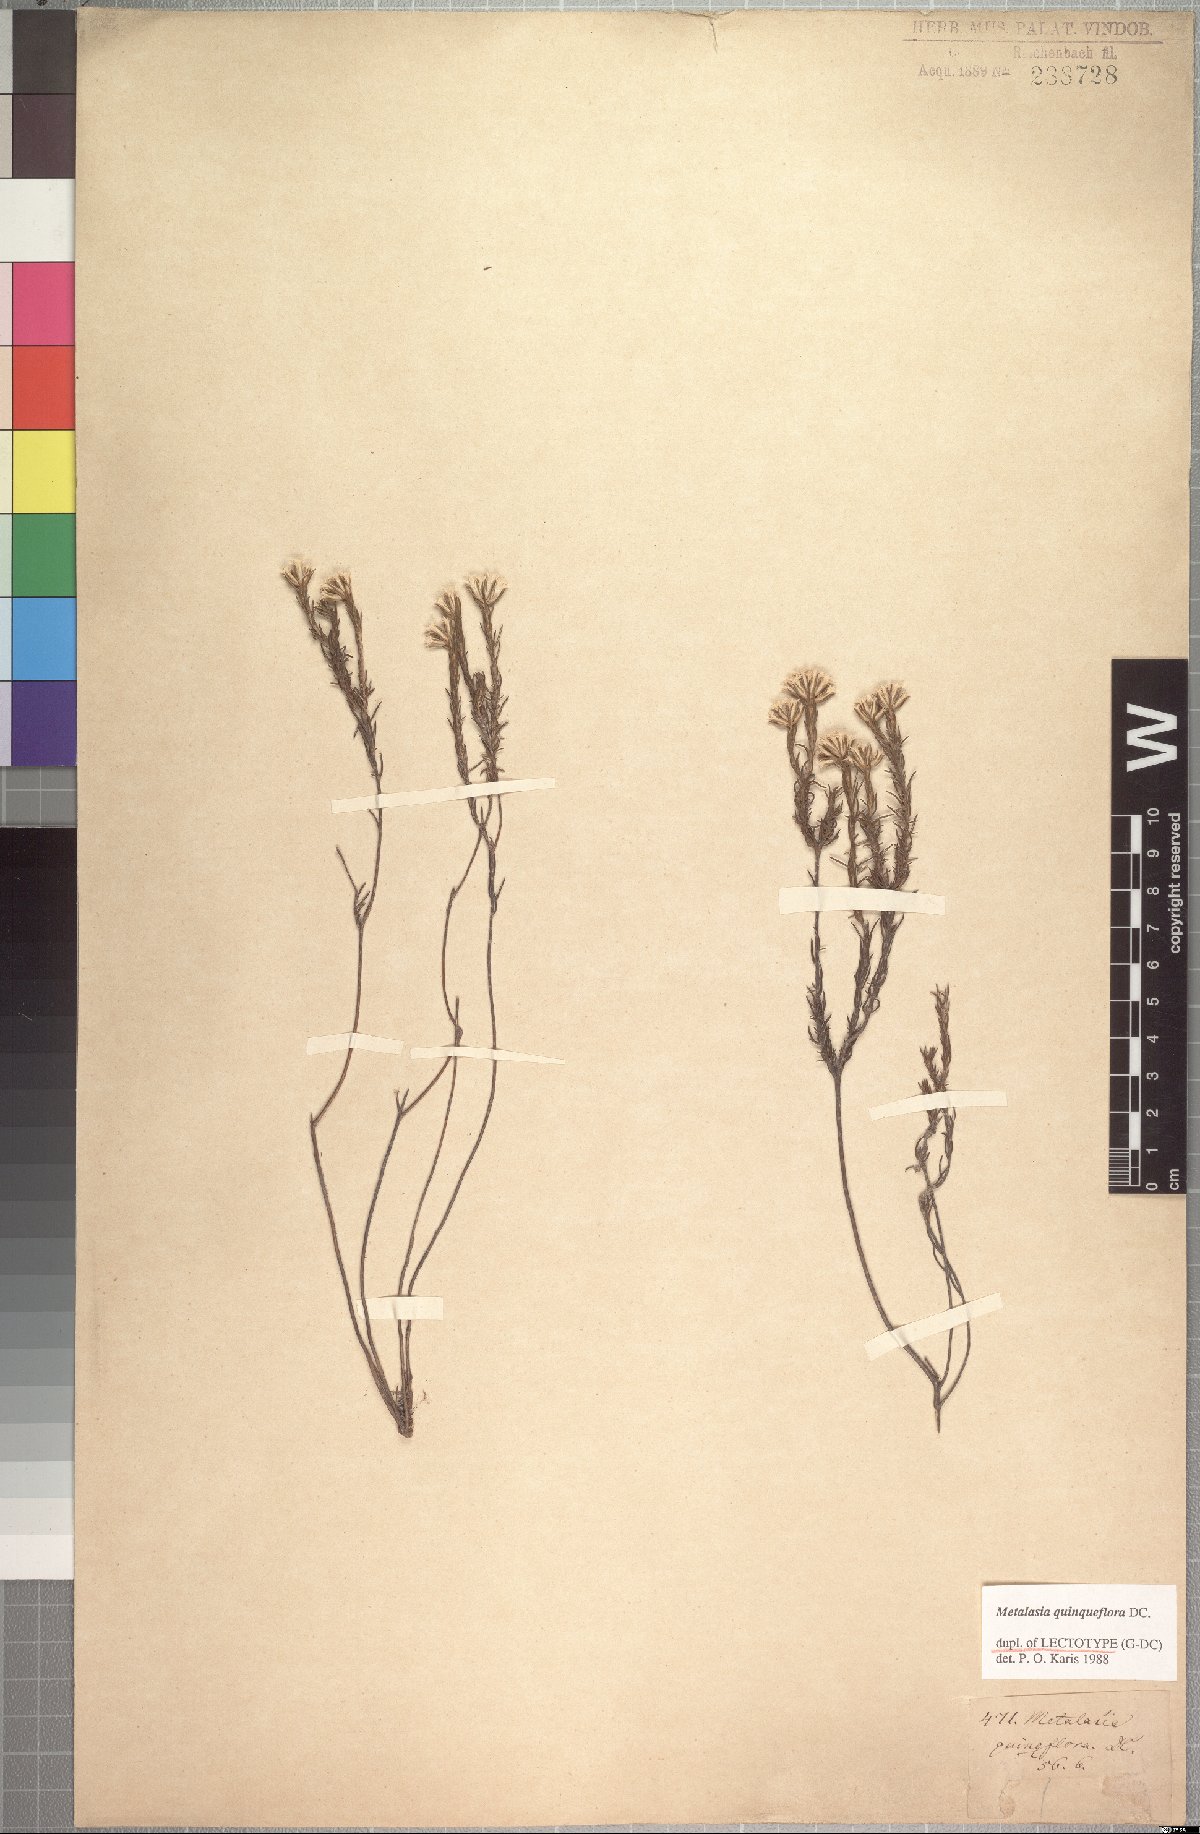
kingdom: Plantae
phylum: Tracheophyta
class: Magnoliopsida
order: Asterales
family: Asteraceae
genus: Metalasia
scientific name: Metalasia quinqueflora
